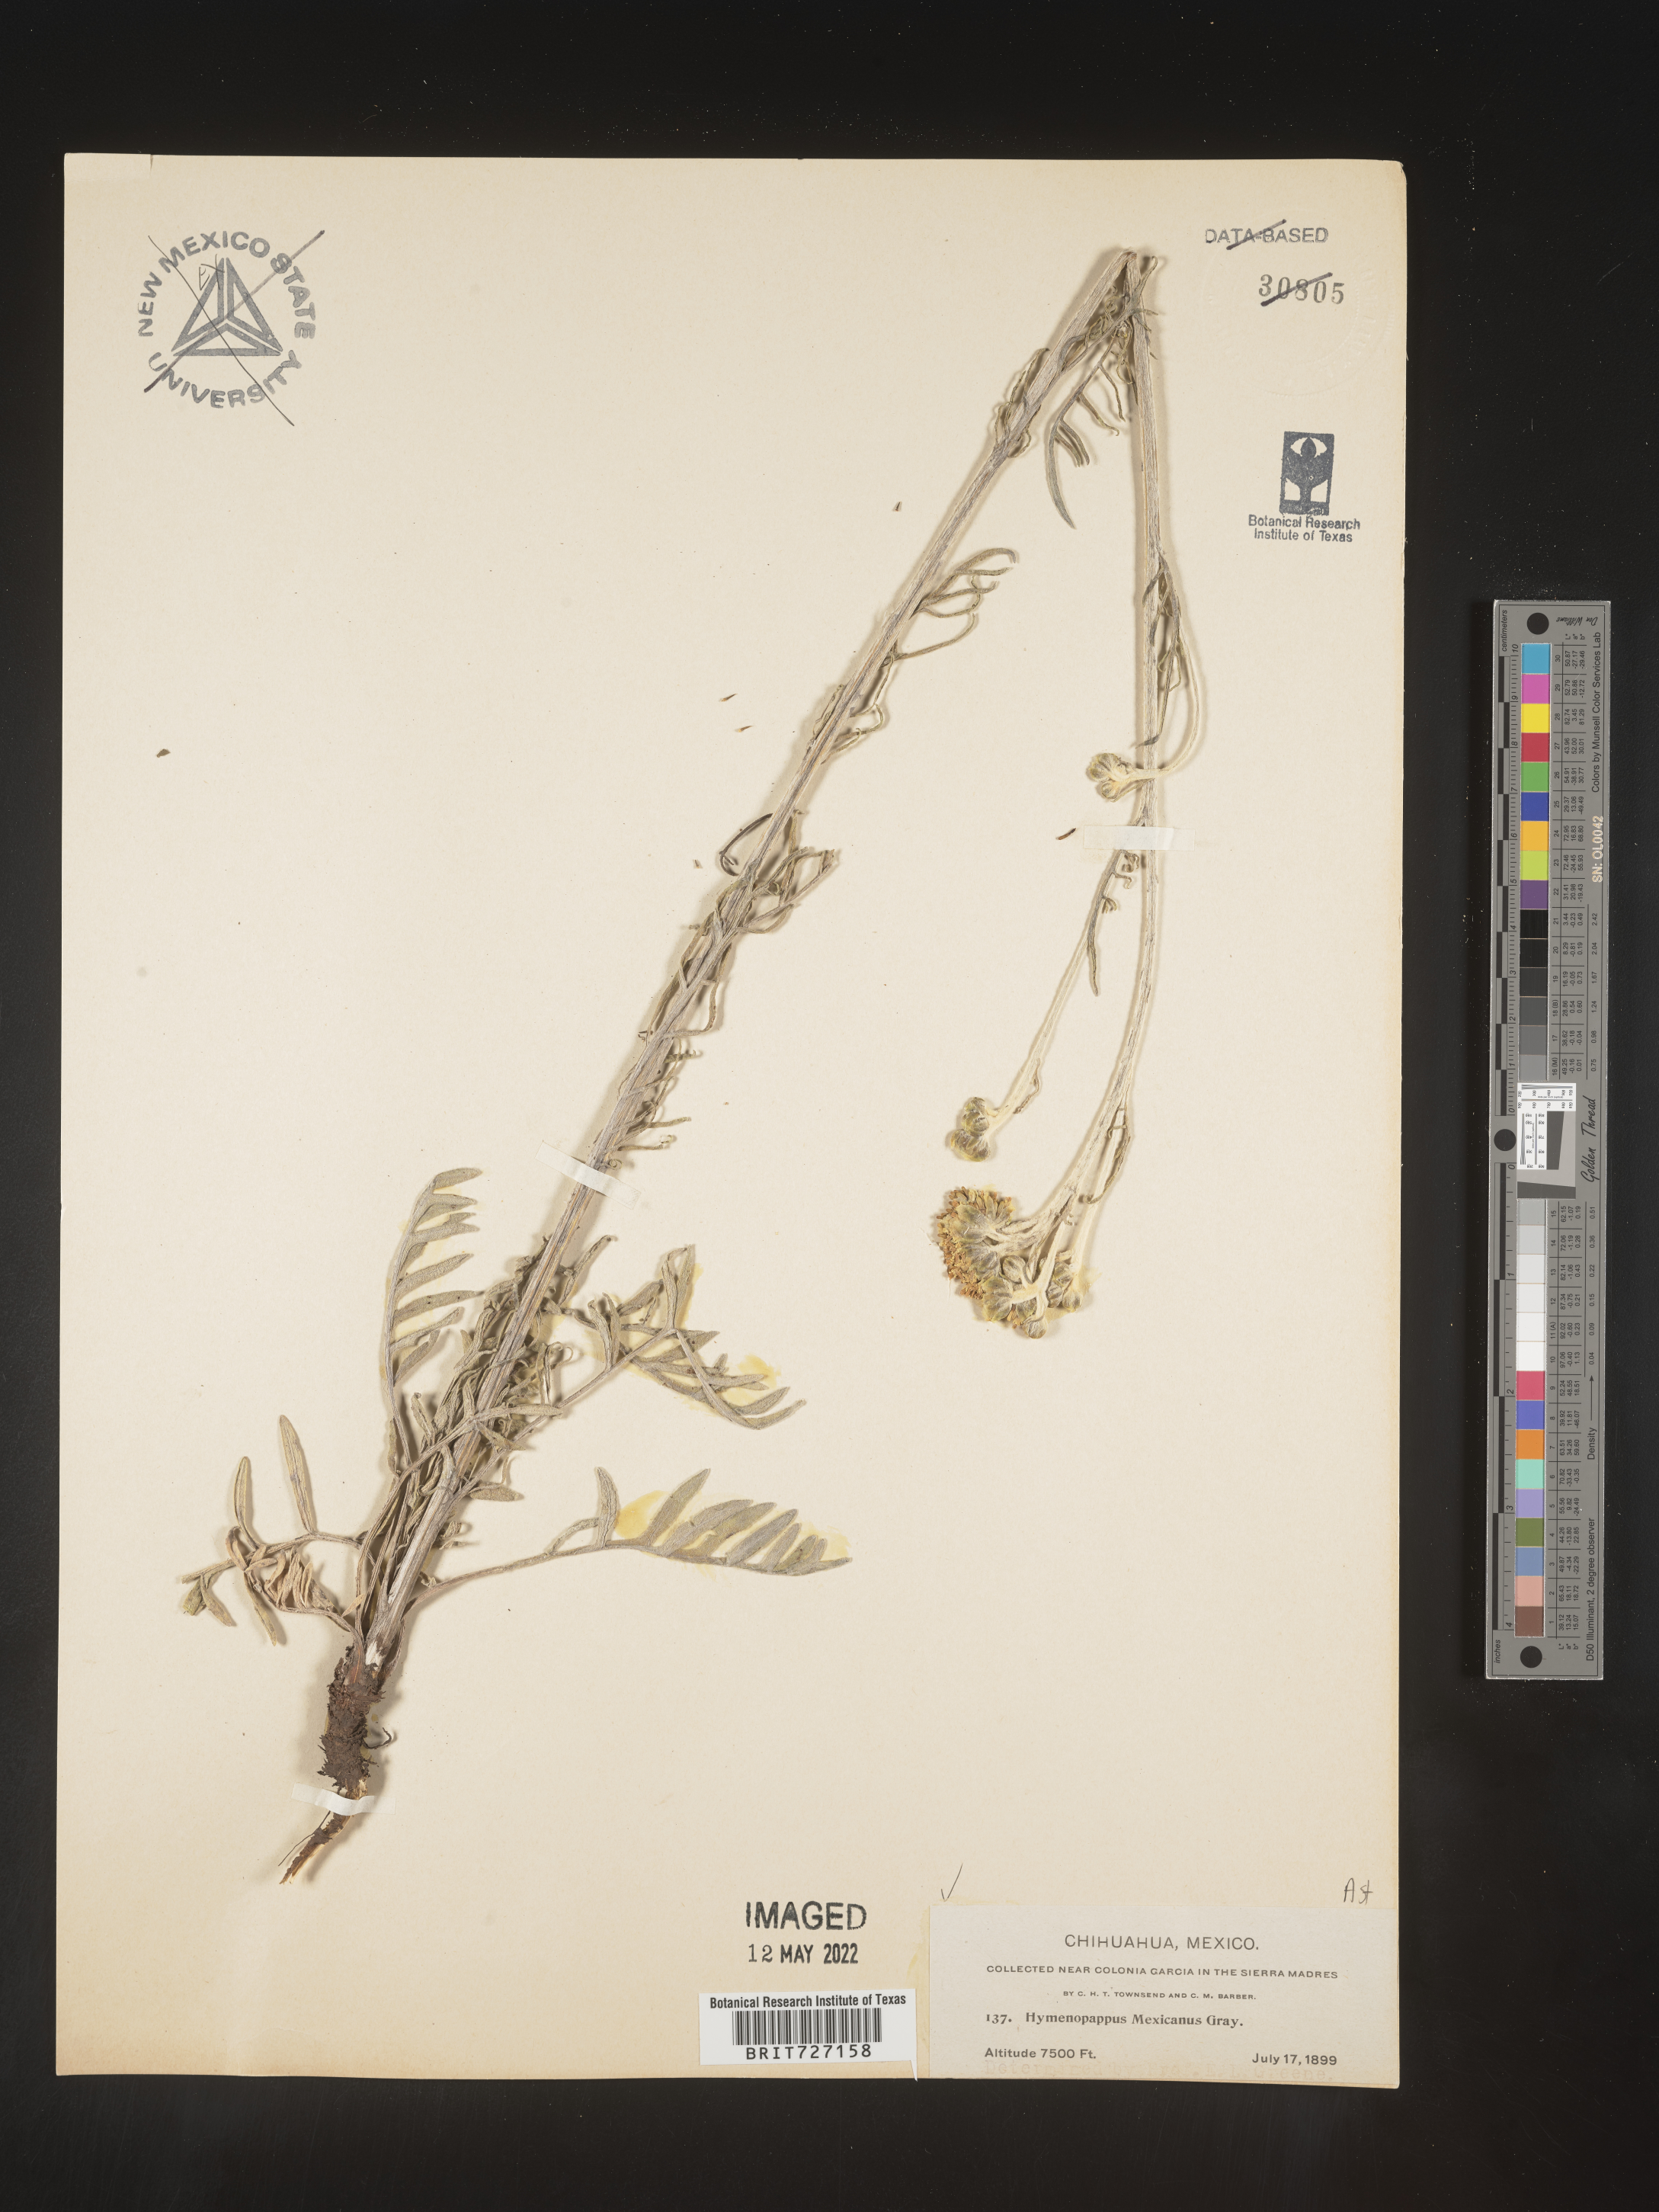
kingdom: Plantae
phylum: Tracheophyta
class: Magnoliopsida
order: Asterales
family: Asteraceae
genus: Hymenopappus
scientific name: Hymenopappus
